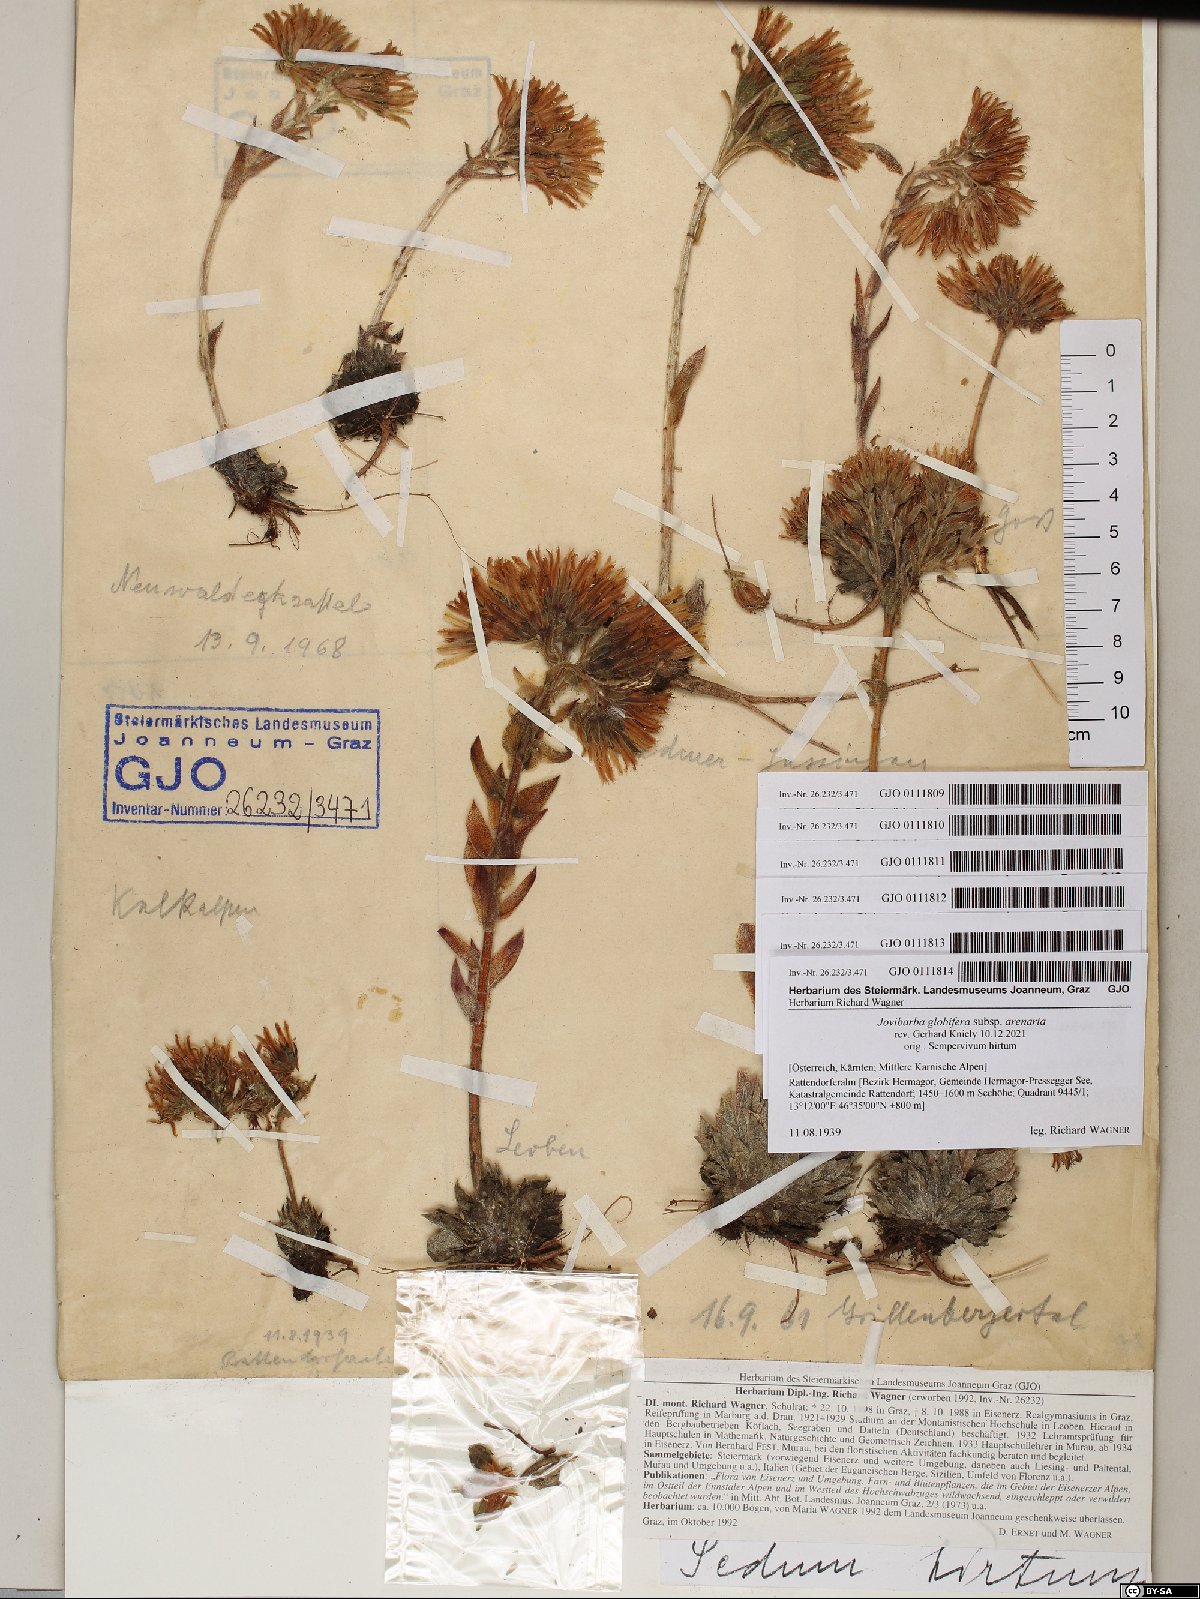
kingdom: Plantae
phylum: Tracheophyta
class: Magnoliopsida
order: Saxifragales
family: Crassulaceae
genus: Sempervivum
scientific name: Sempervivum globiferum
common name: Rolling hen-and-chicks
